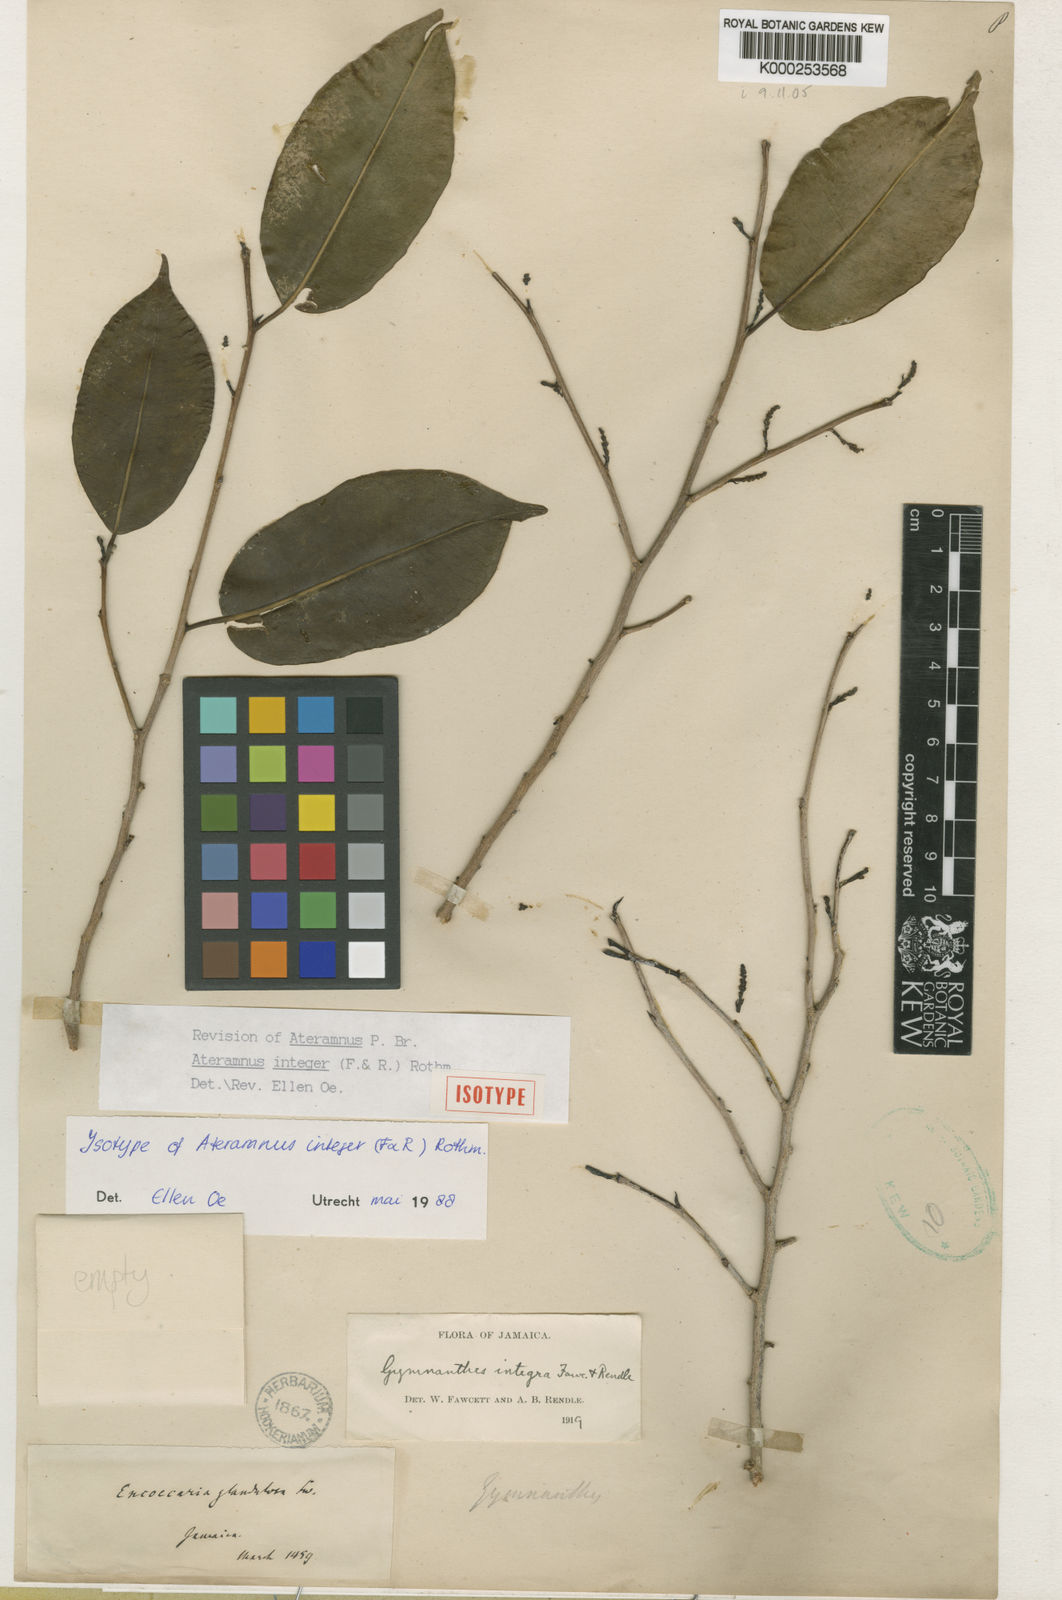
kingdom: Plantae
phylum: Tracheophyta
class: Magnoliopsida
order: Malpighiales
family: Euphorbiaceae
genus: Sebastiania
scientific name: Sebastiania integra
